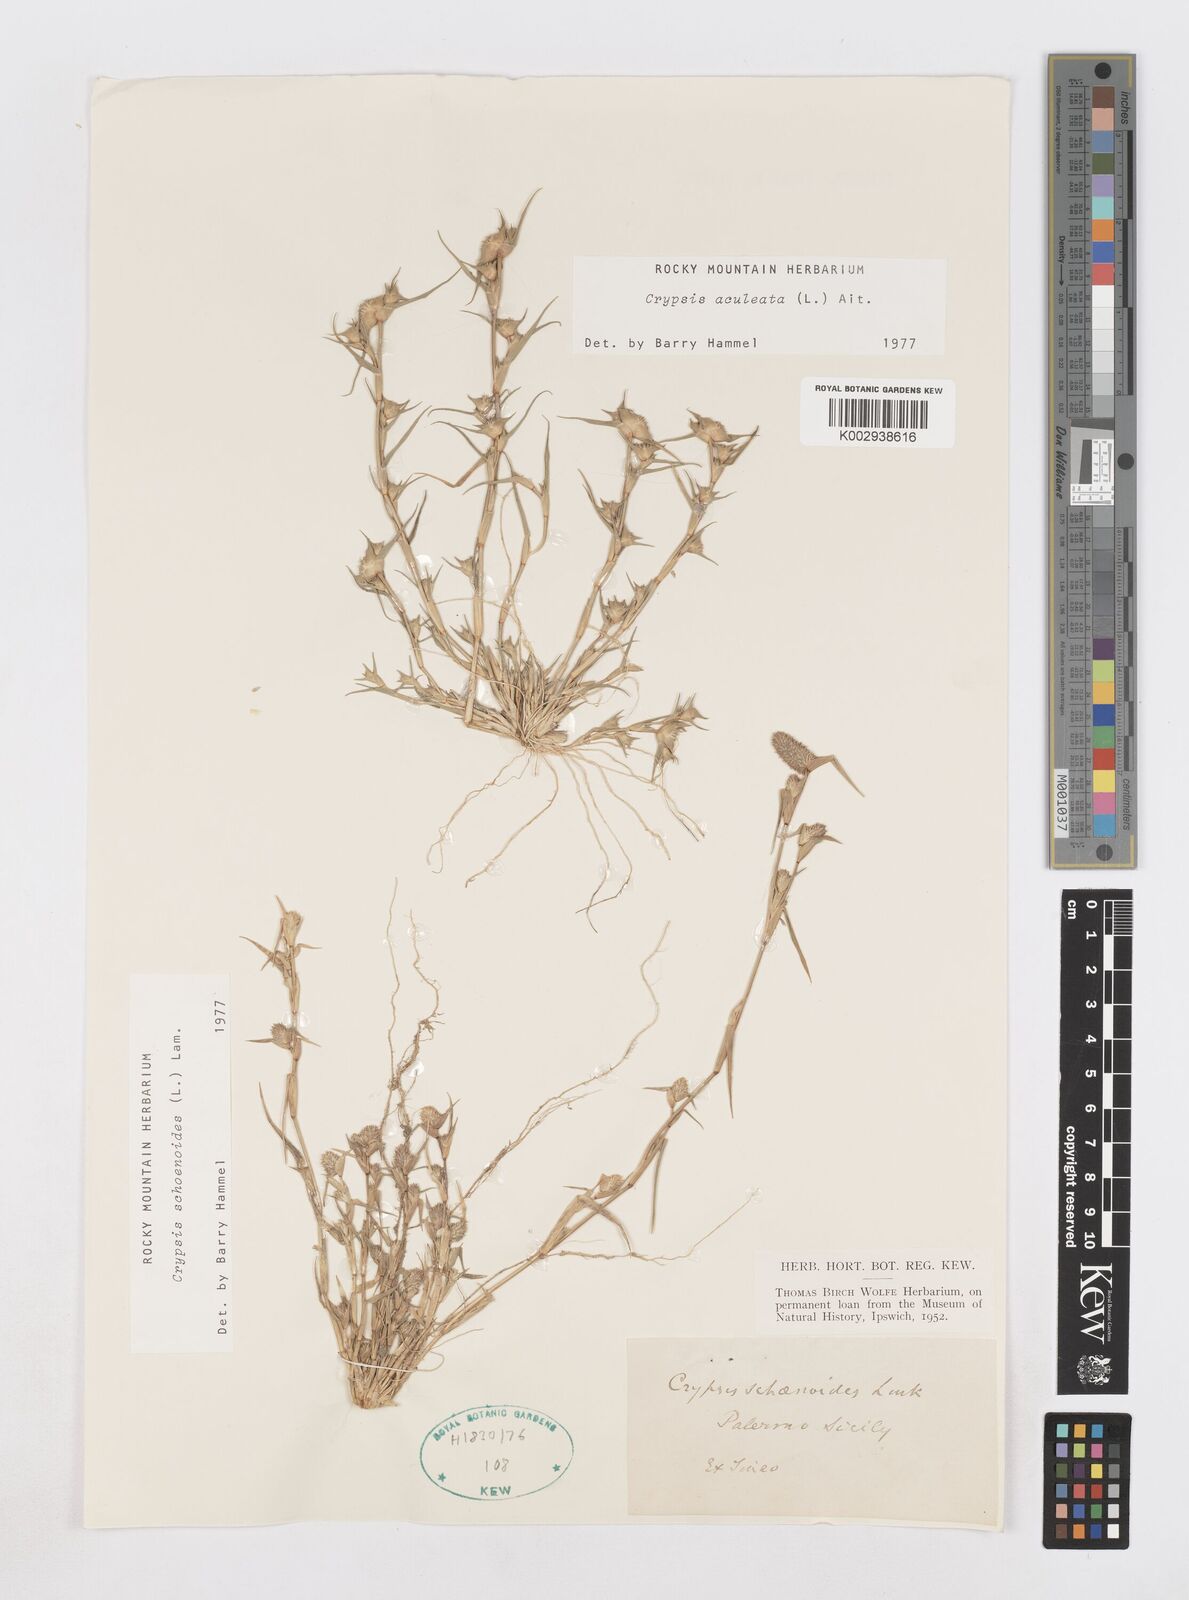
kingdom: Plantae
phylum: Tracheophyta
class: Liliopsida
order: Poales
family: Poaceae
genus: Sporobolus
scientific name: Sporobolus schoenoides
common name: Rush-like timothy
